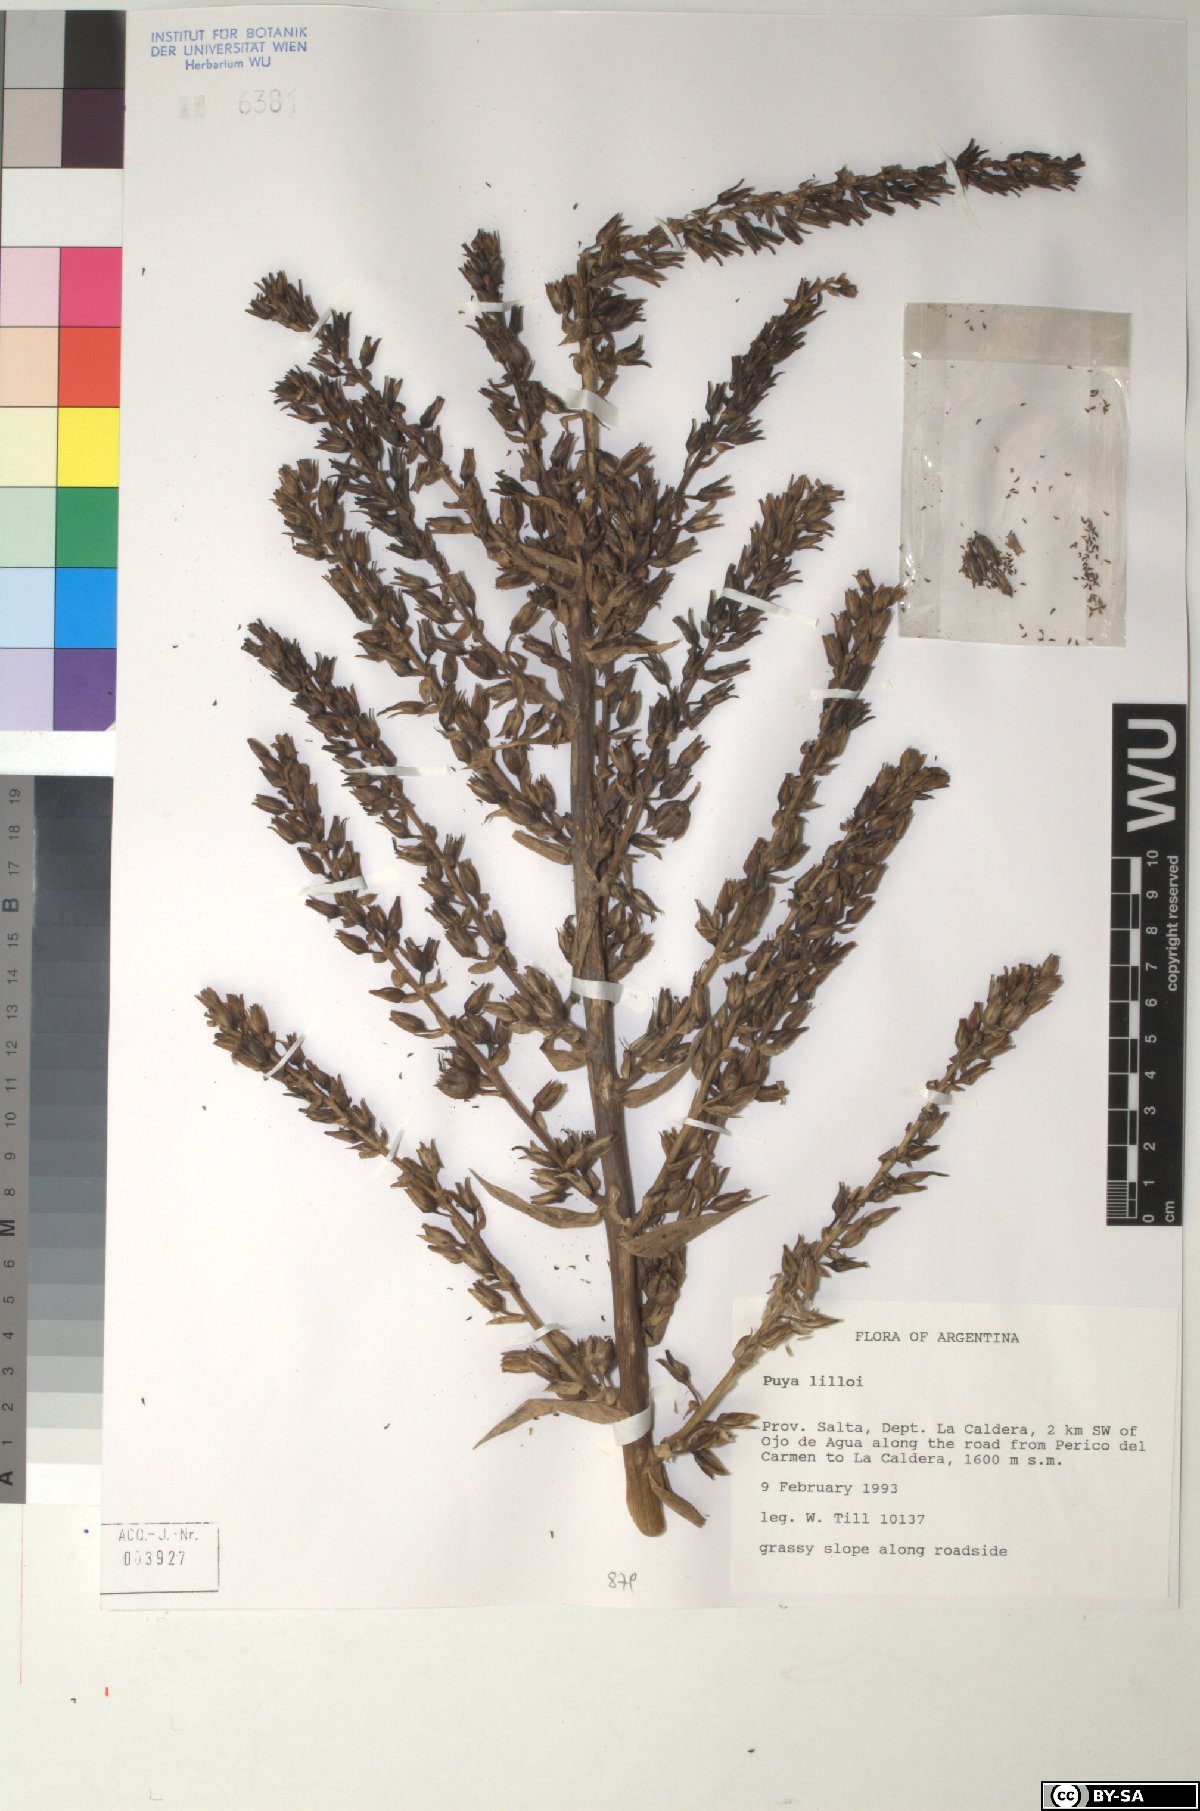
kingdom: Plantae
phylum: Tracheophyta
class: Liliopsida
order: Poales
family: Bromeliaceae
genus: Puya
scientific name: Puya lilloi
